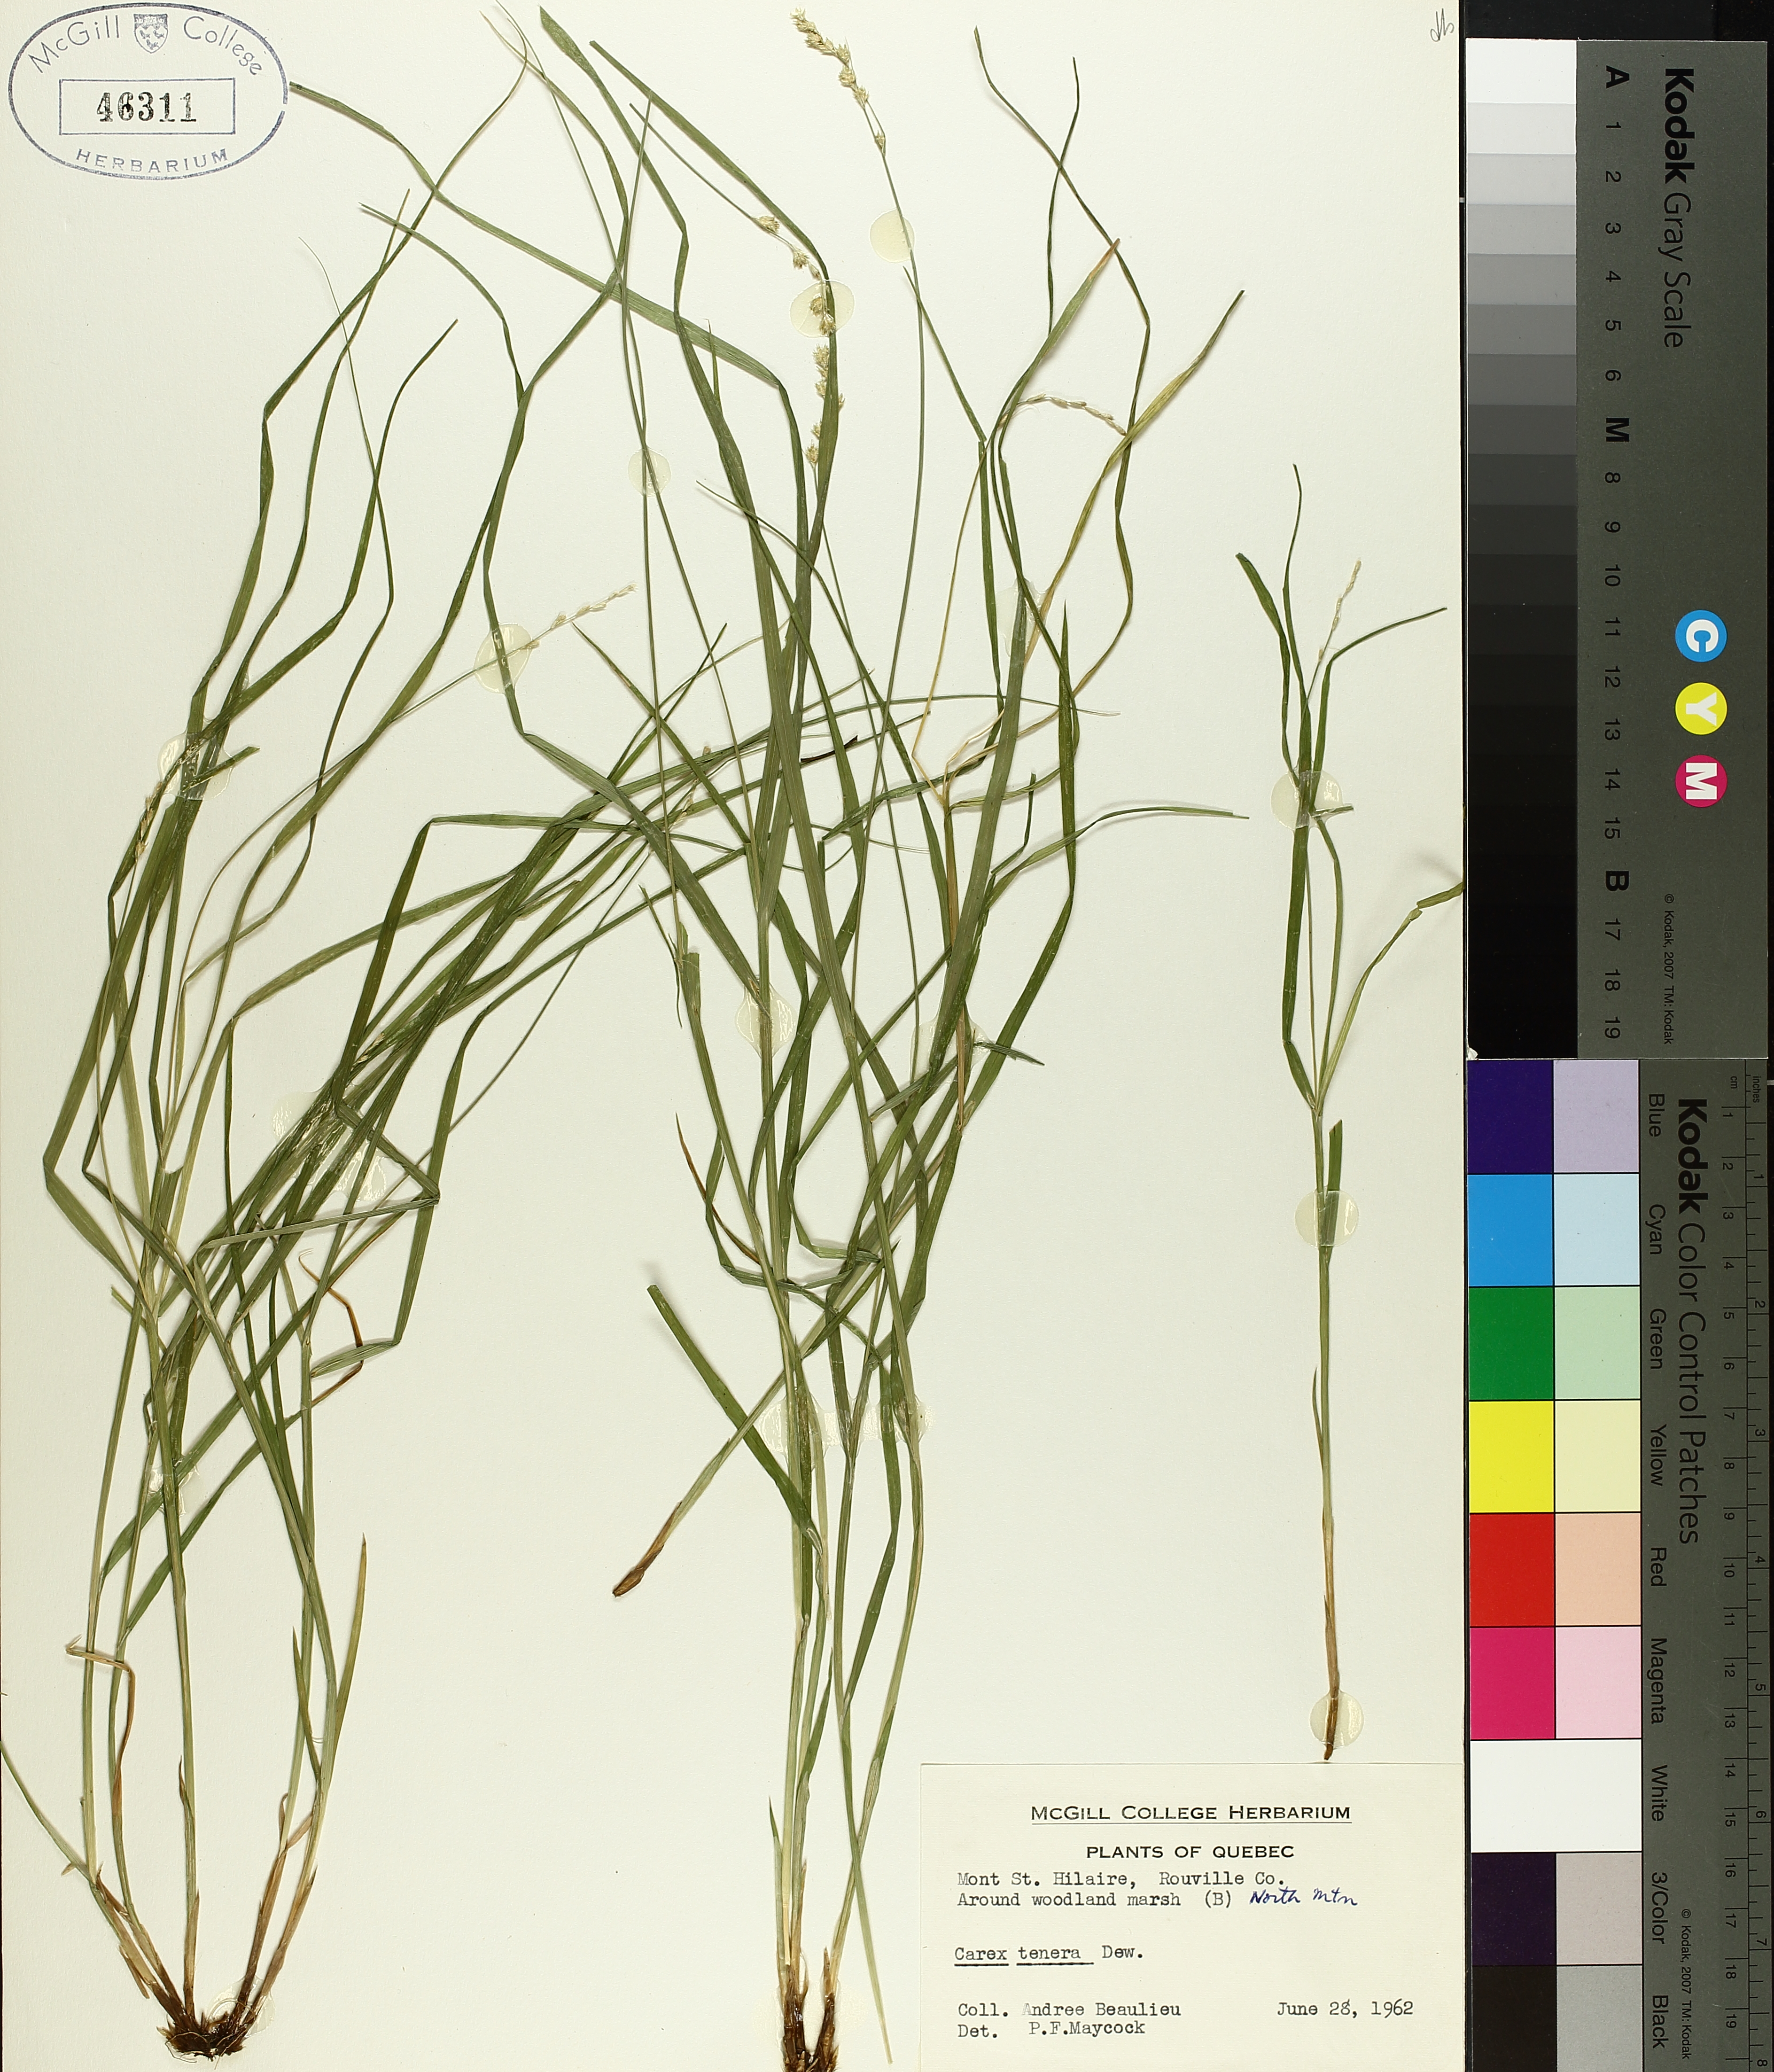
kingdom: Plantae
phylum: Tracheophyta
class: Liliopsida
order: Poales
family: Cyperaceae
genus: Carex
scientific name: Carex tenera
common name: Broad-fruited sedge
